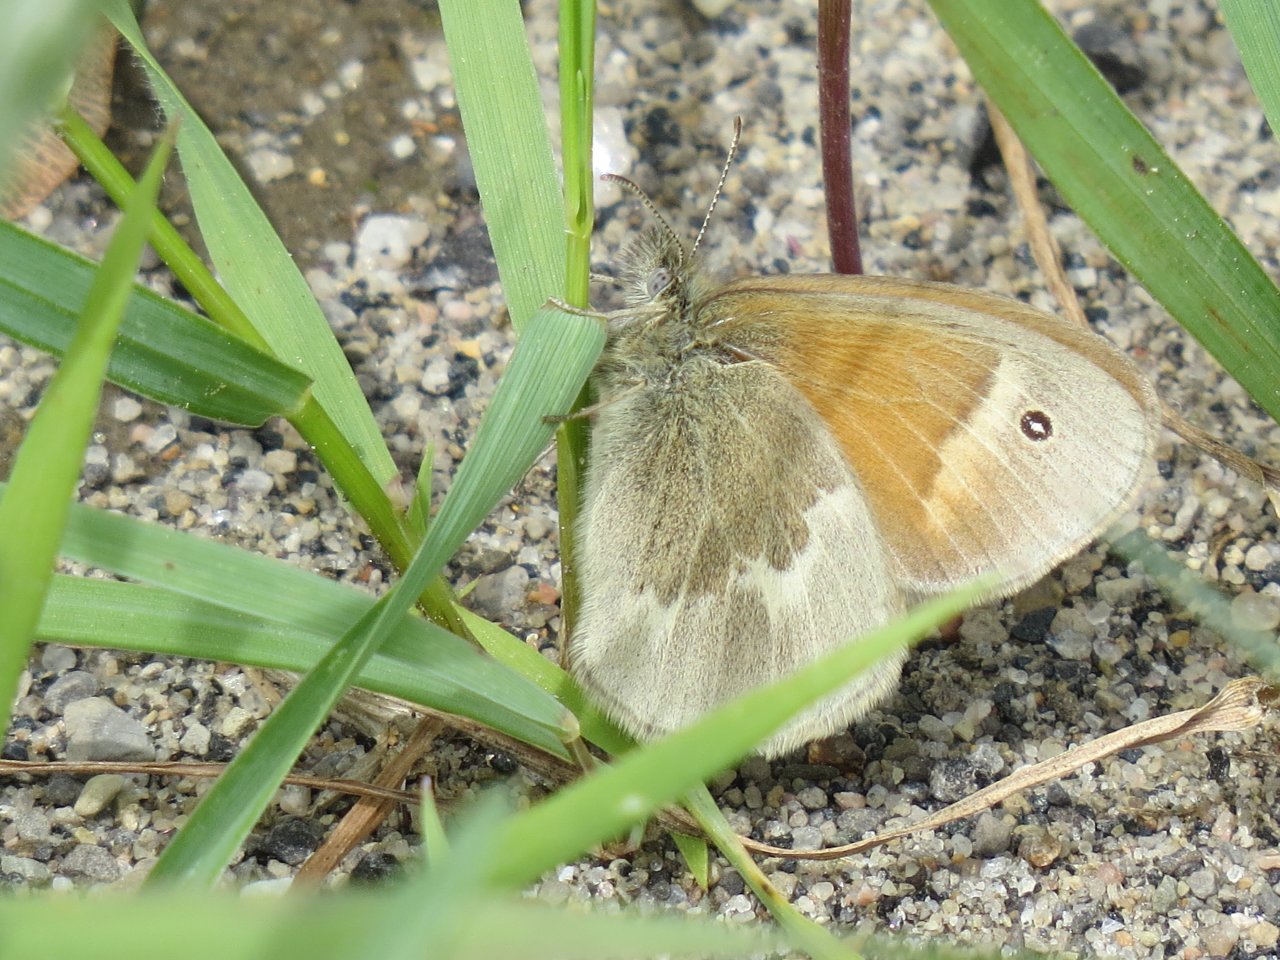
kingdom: Animalia
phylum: Arthropoda
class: Insecta
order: Lepidoptera
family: Nymphalidae
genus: Coenonympha
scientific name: Coenonympha tullia
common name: Large Heath
